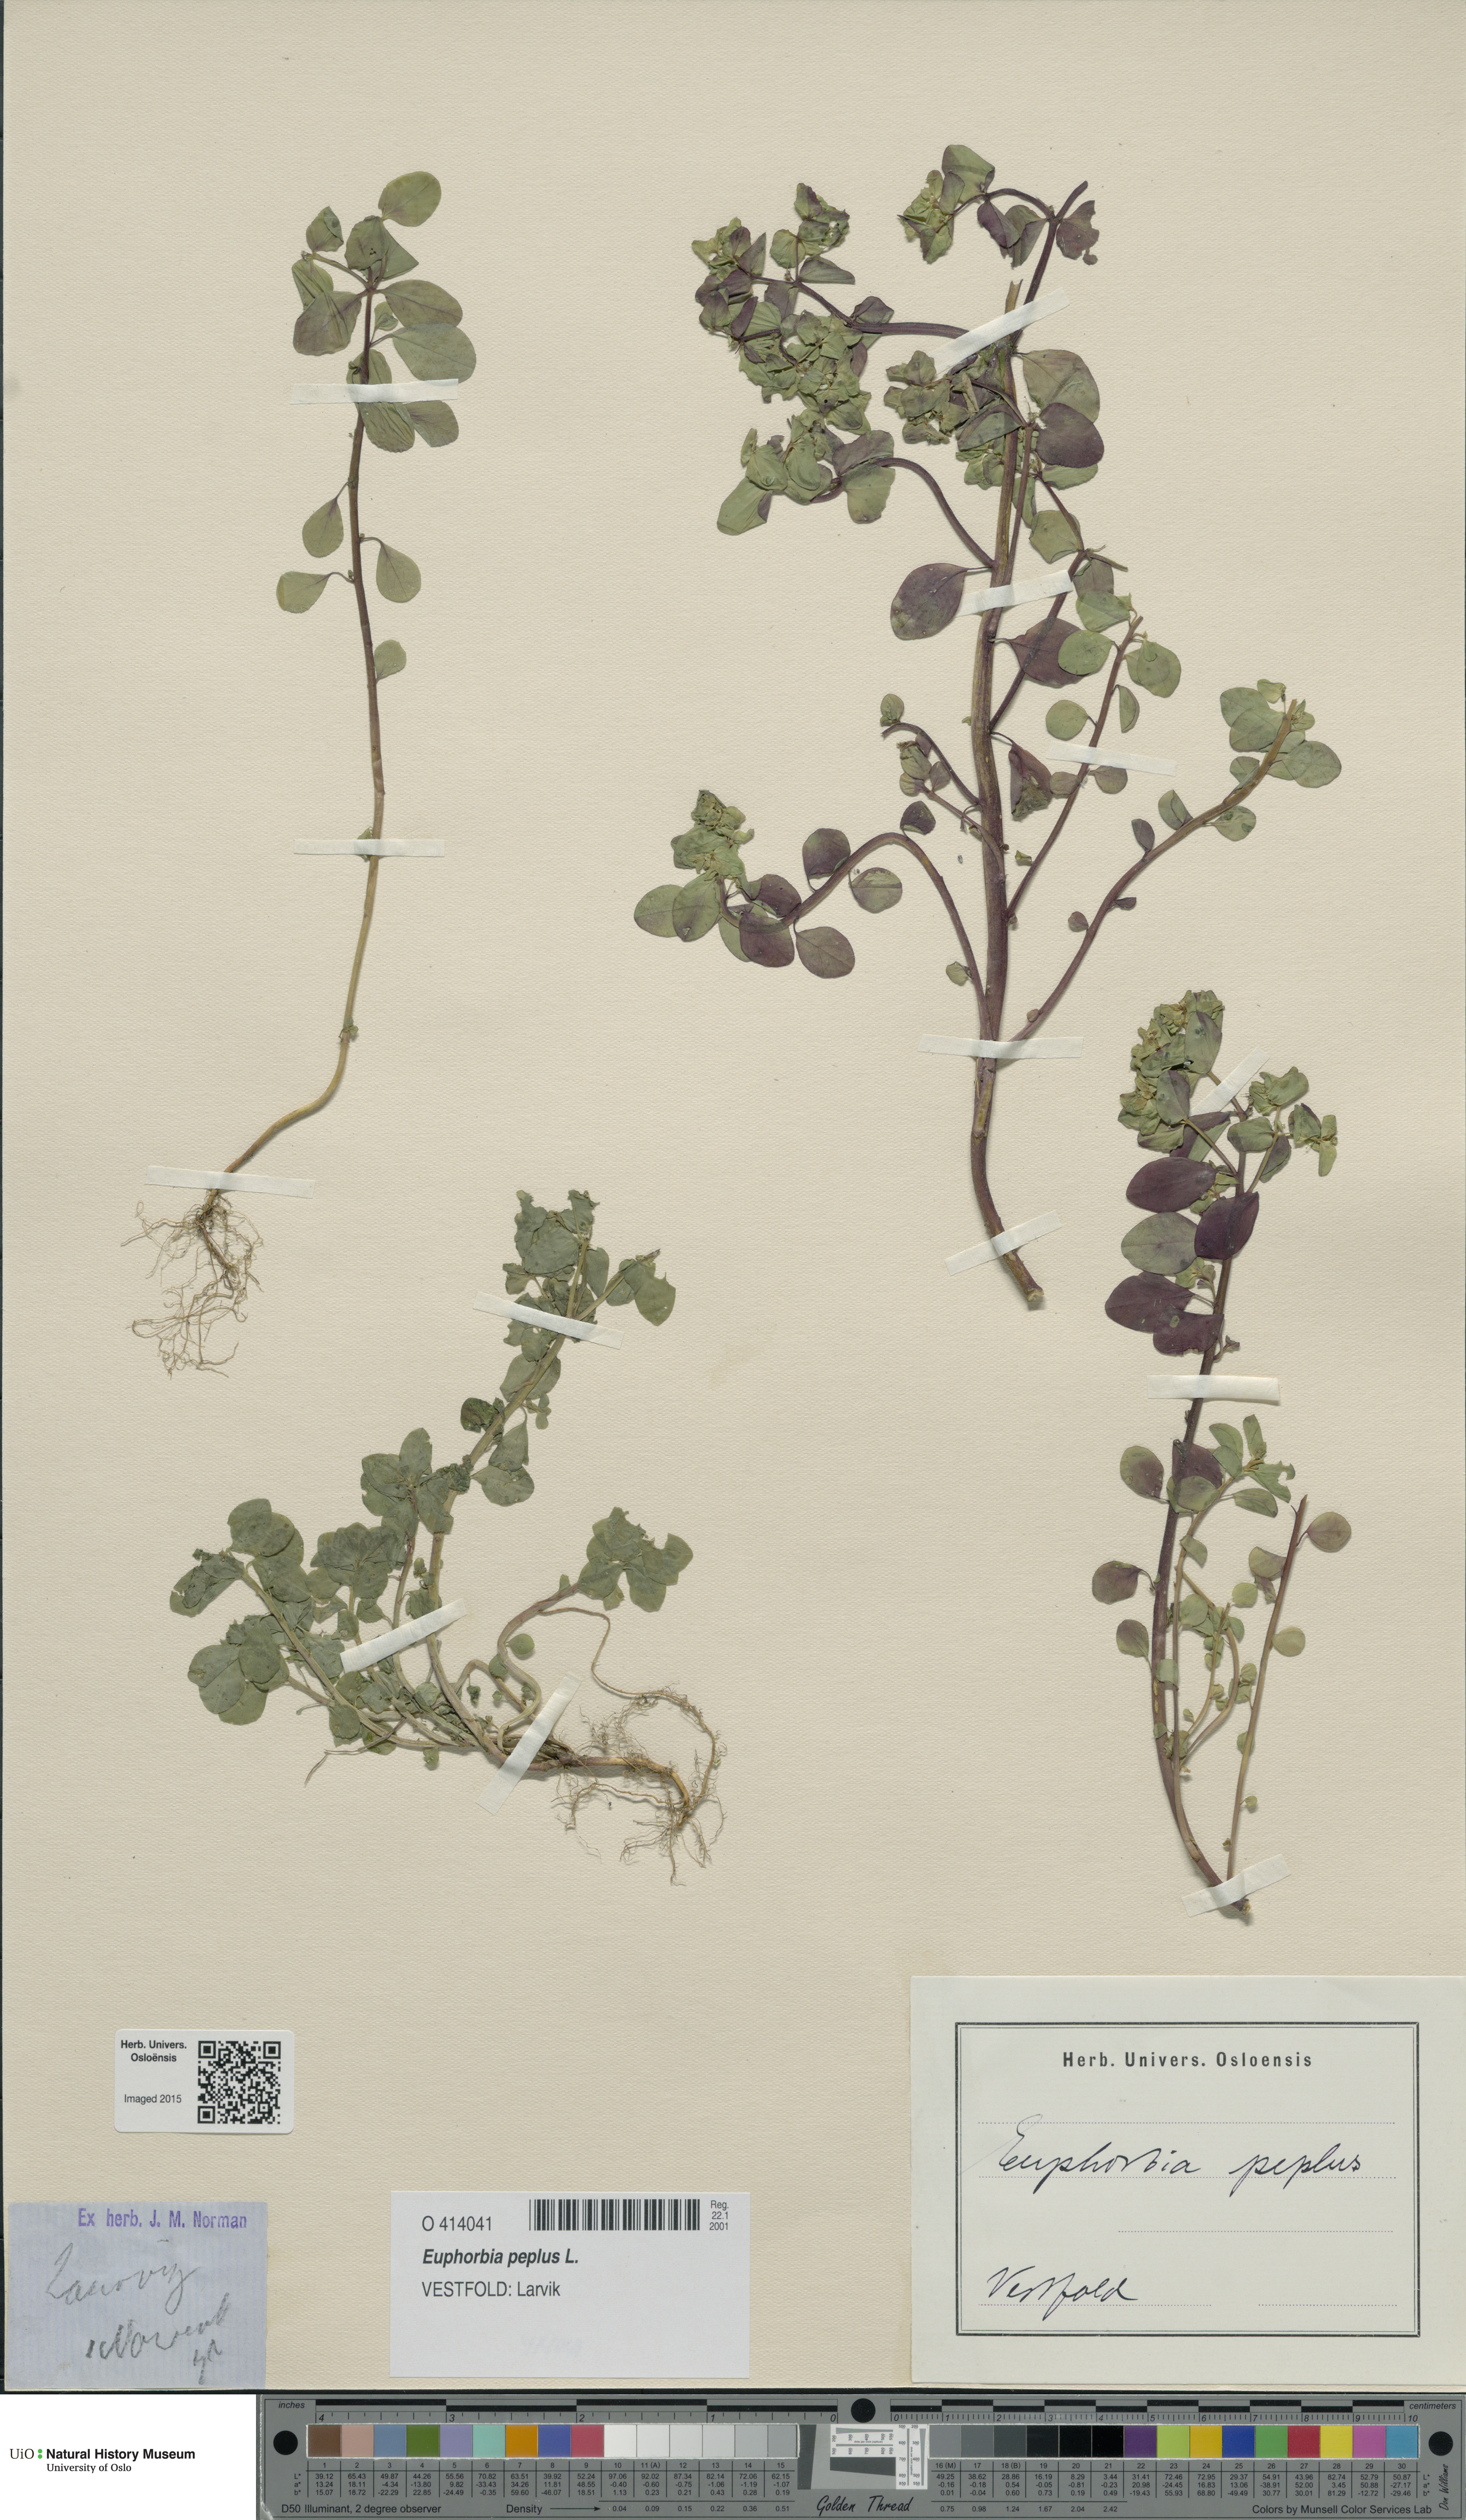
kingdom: Plantae
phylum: Tracheophyta
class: Magnoliopsida
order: Malpighiales
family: Euphorbiaceae
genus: Euphorbia
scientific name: Euphorbia peplus
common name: Petty spurge
